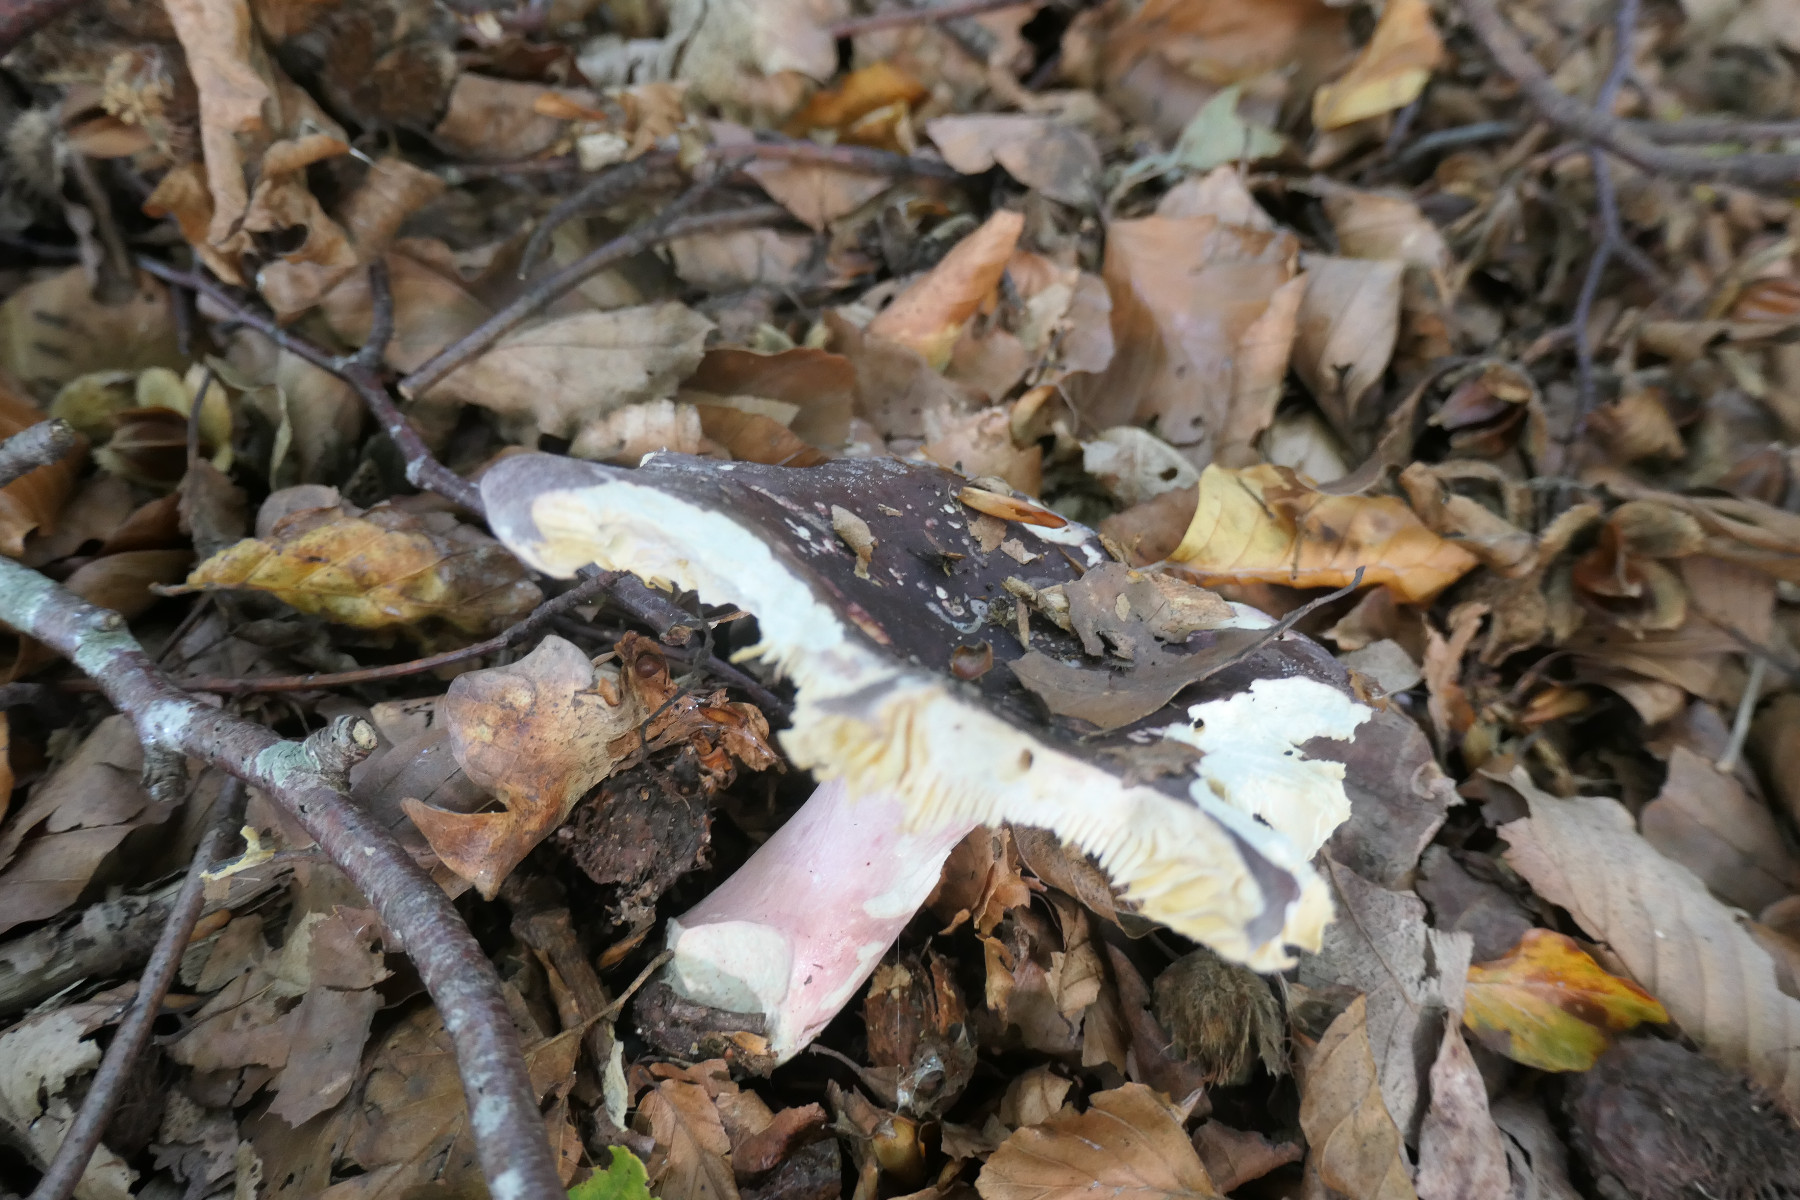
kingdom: Fungi
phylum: Basidiomycota
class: Agaricomycetes
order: Russulales
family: Russulaceae
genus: Russula
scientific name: Russula olivacea
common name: stor skørhat
